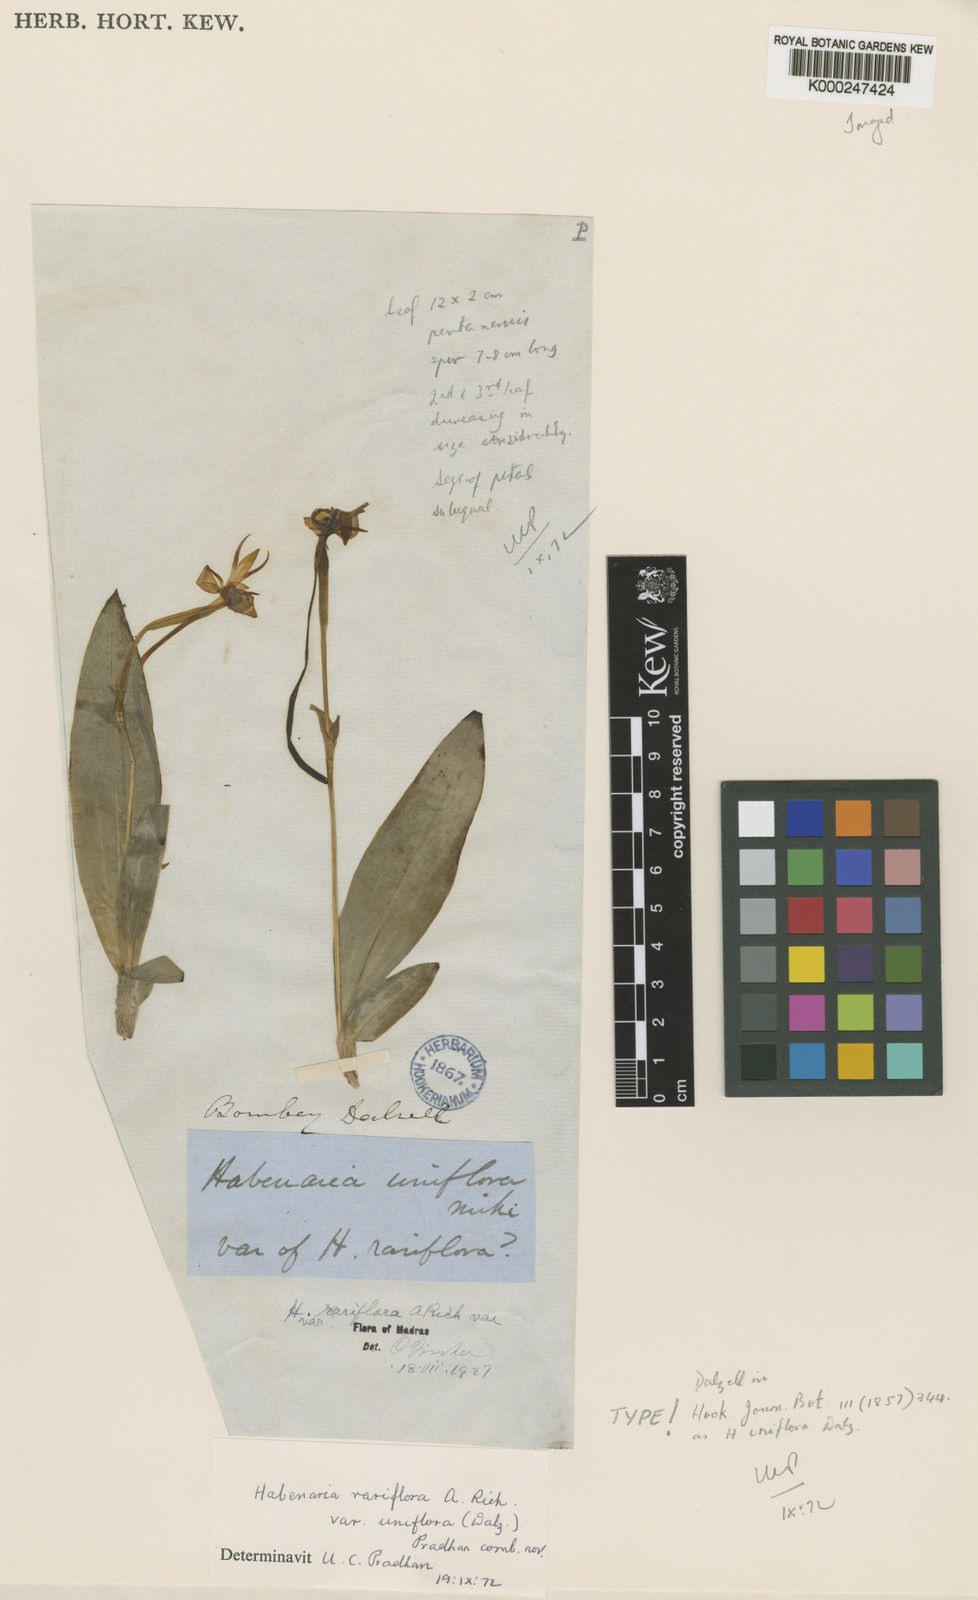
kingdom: Plantae
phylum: Tracheophyta
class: Liliopsida
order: Asparagales
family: Orchidaceae
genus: Habenaria
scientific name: Habenaria rariflora
